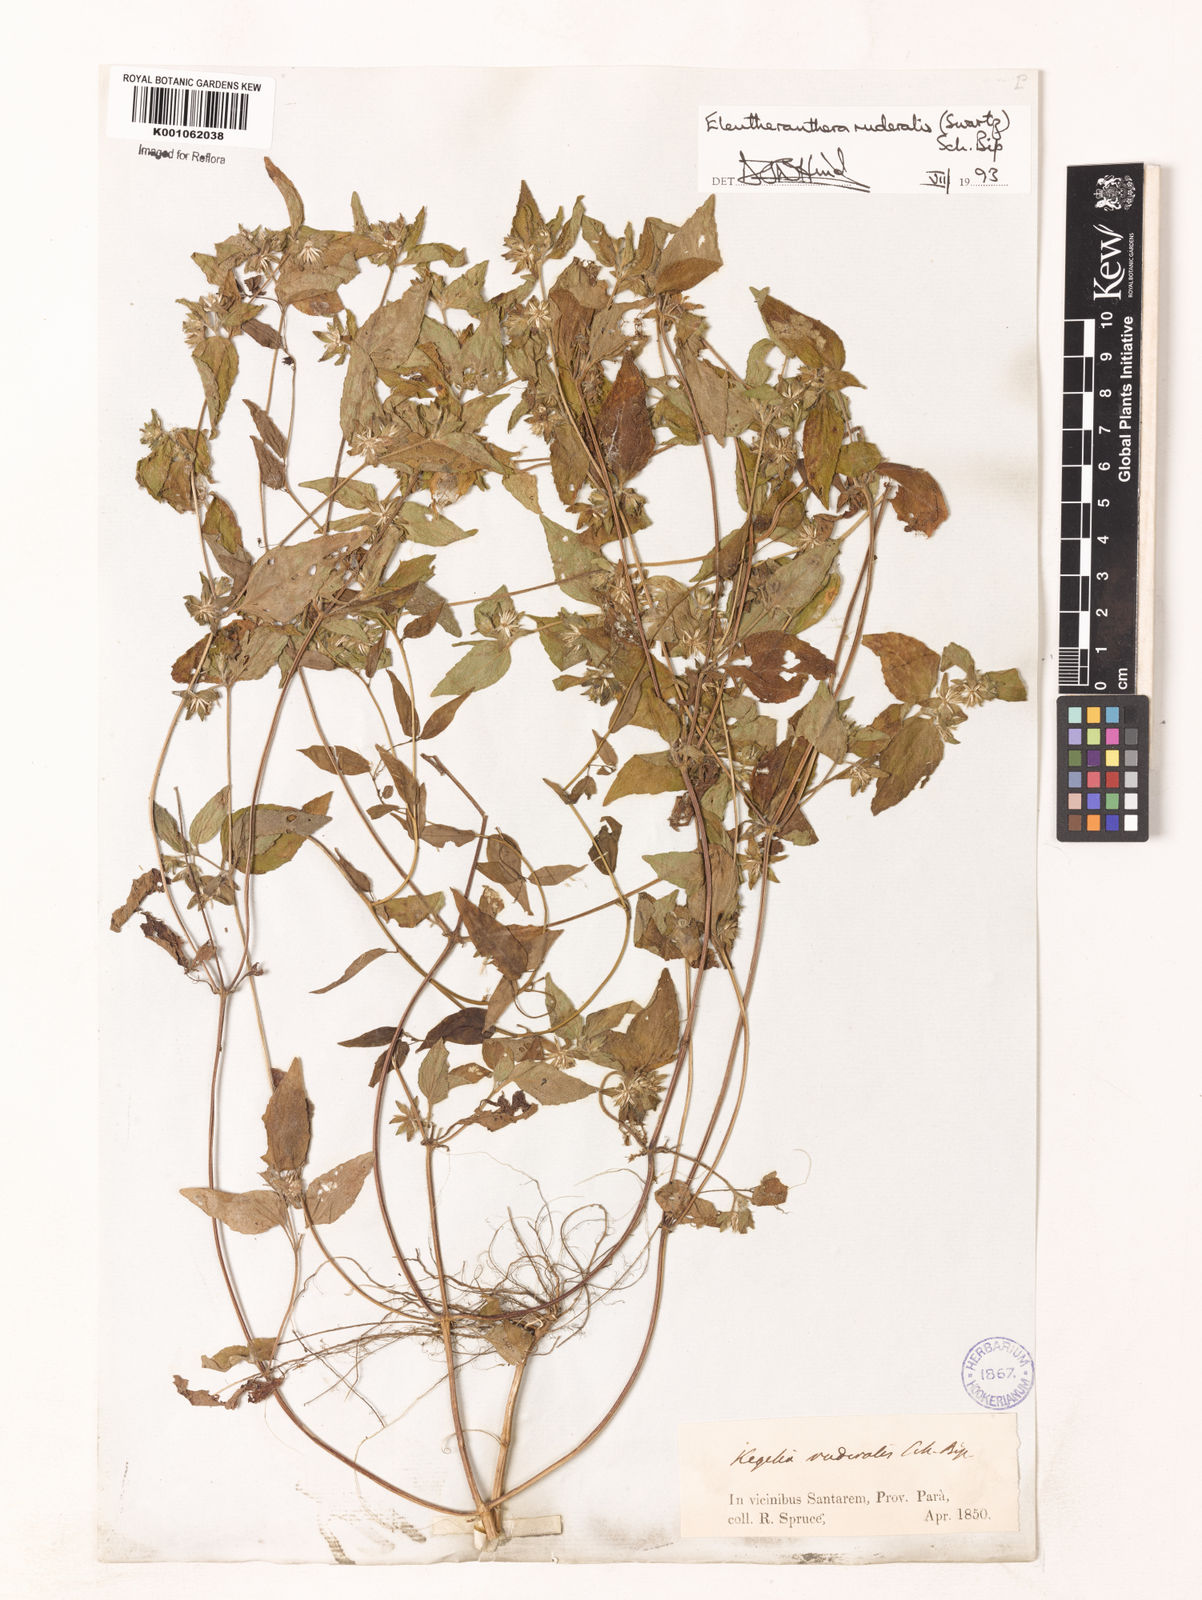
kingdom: Plantae
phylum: Tracheophyta
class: Magnoliopsida
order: Asterales
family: Asteraceae
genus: Eleutheranthera
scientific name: Eleutheranthera ruderalis
